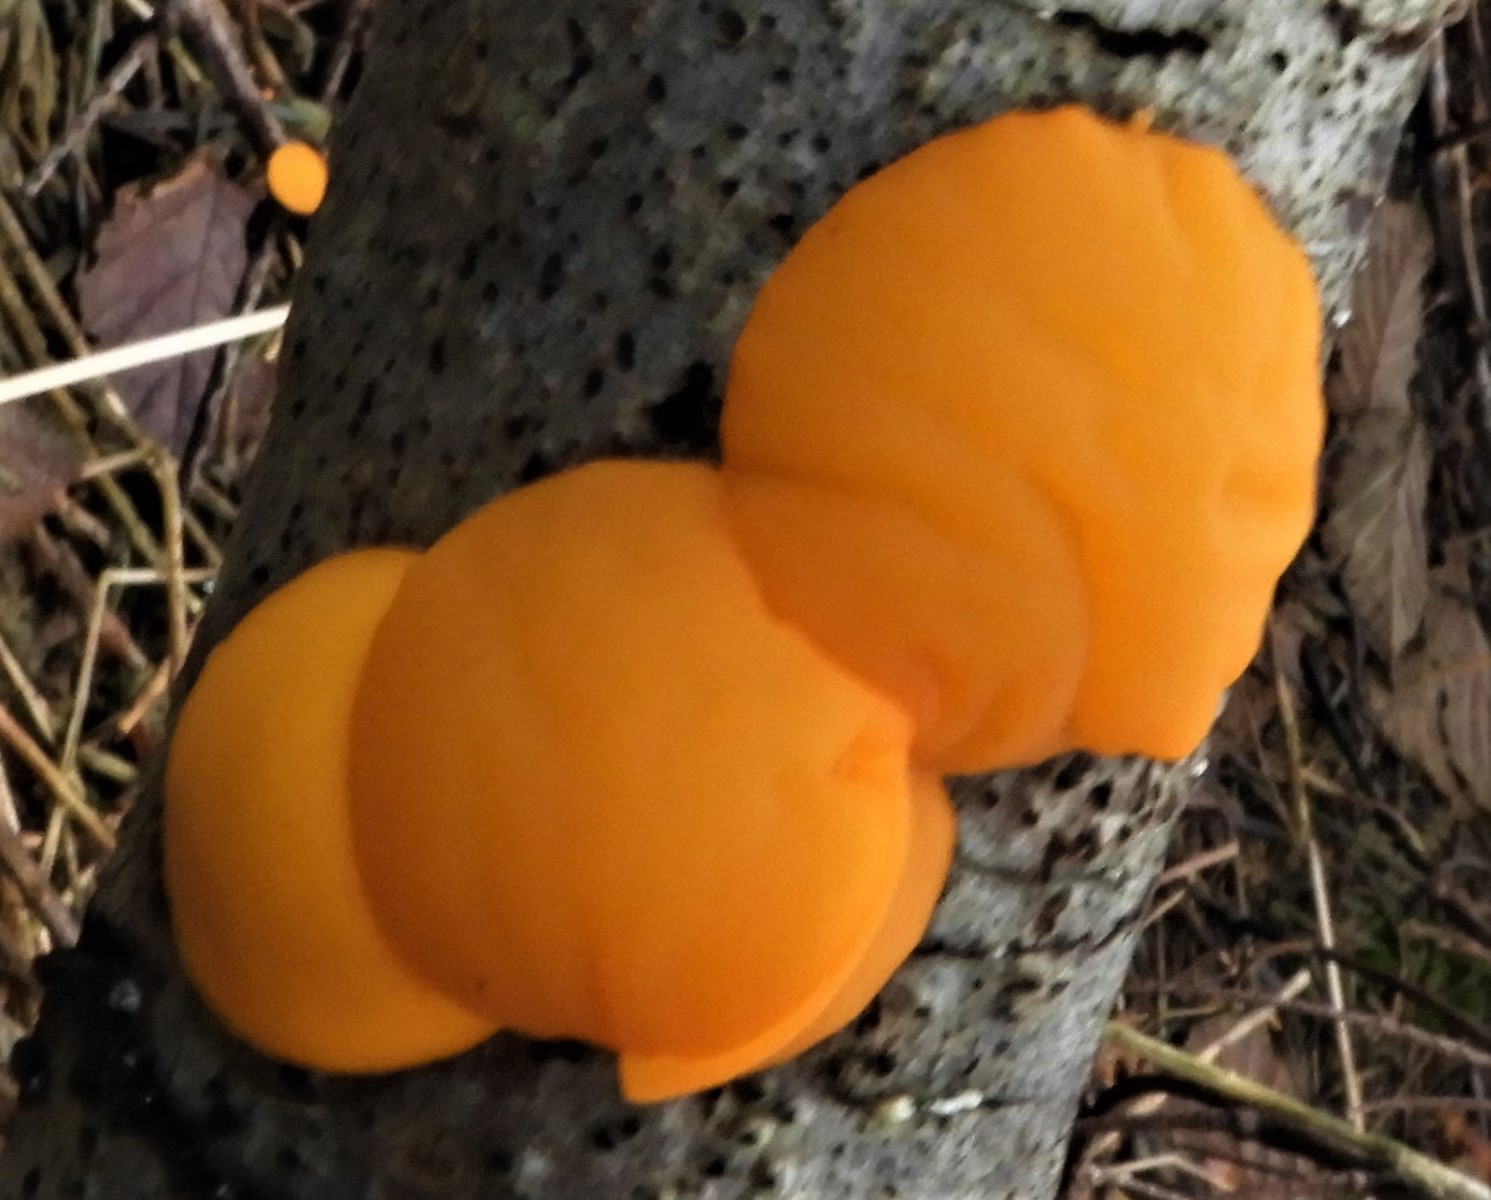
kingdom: Fungi
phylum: Ascomycota
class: Pezizomycetes
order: Pezizales
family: Sarcoscyphaceae
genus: Pithya
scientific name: Pithya vulgaris
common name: stor dukatbæger
